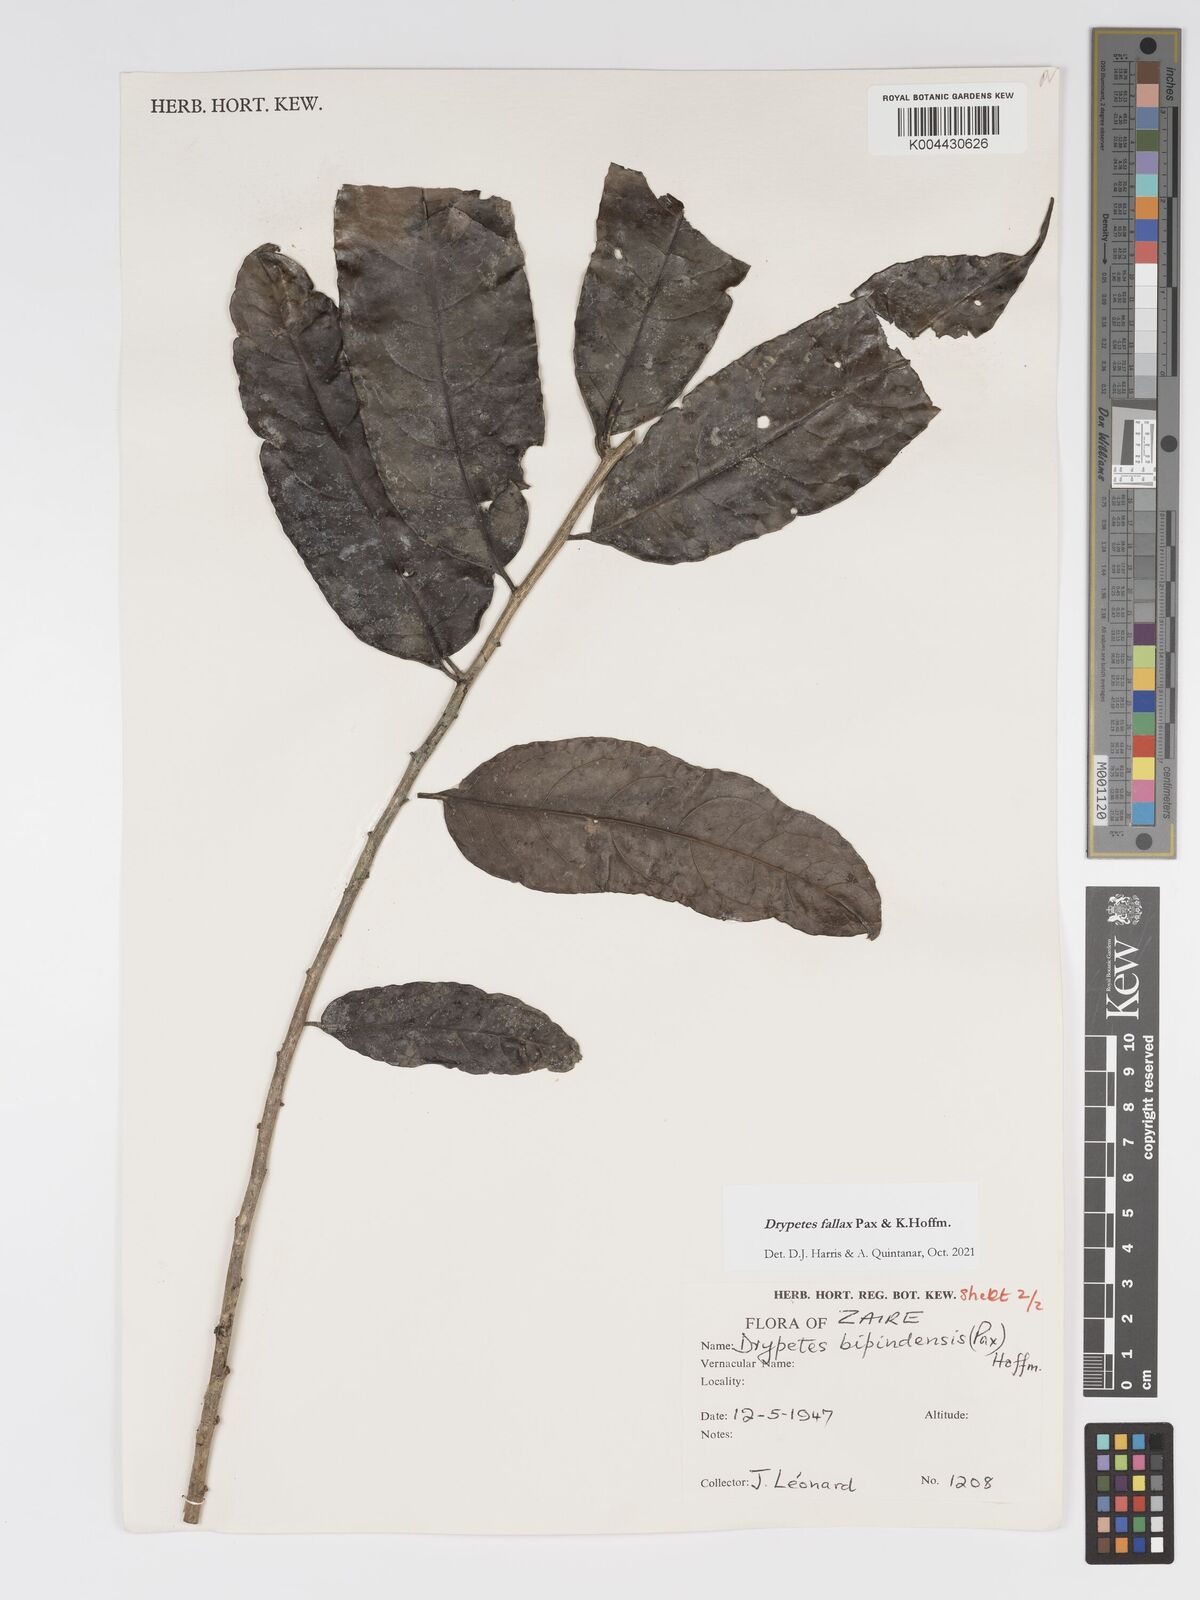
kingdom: Plantae
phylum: Tracheophyta
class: Magnoliopsida
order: Malpighiales
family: Putranjivaceae
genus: Drypetes
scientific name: Drypetes fallax
